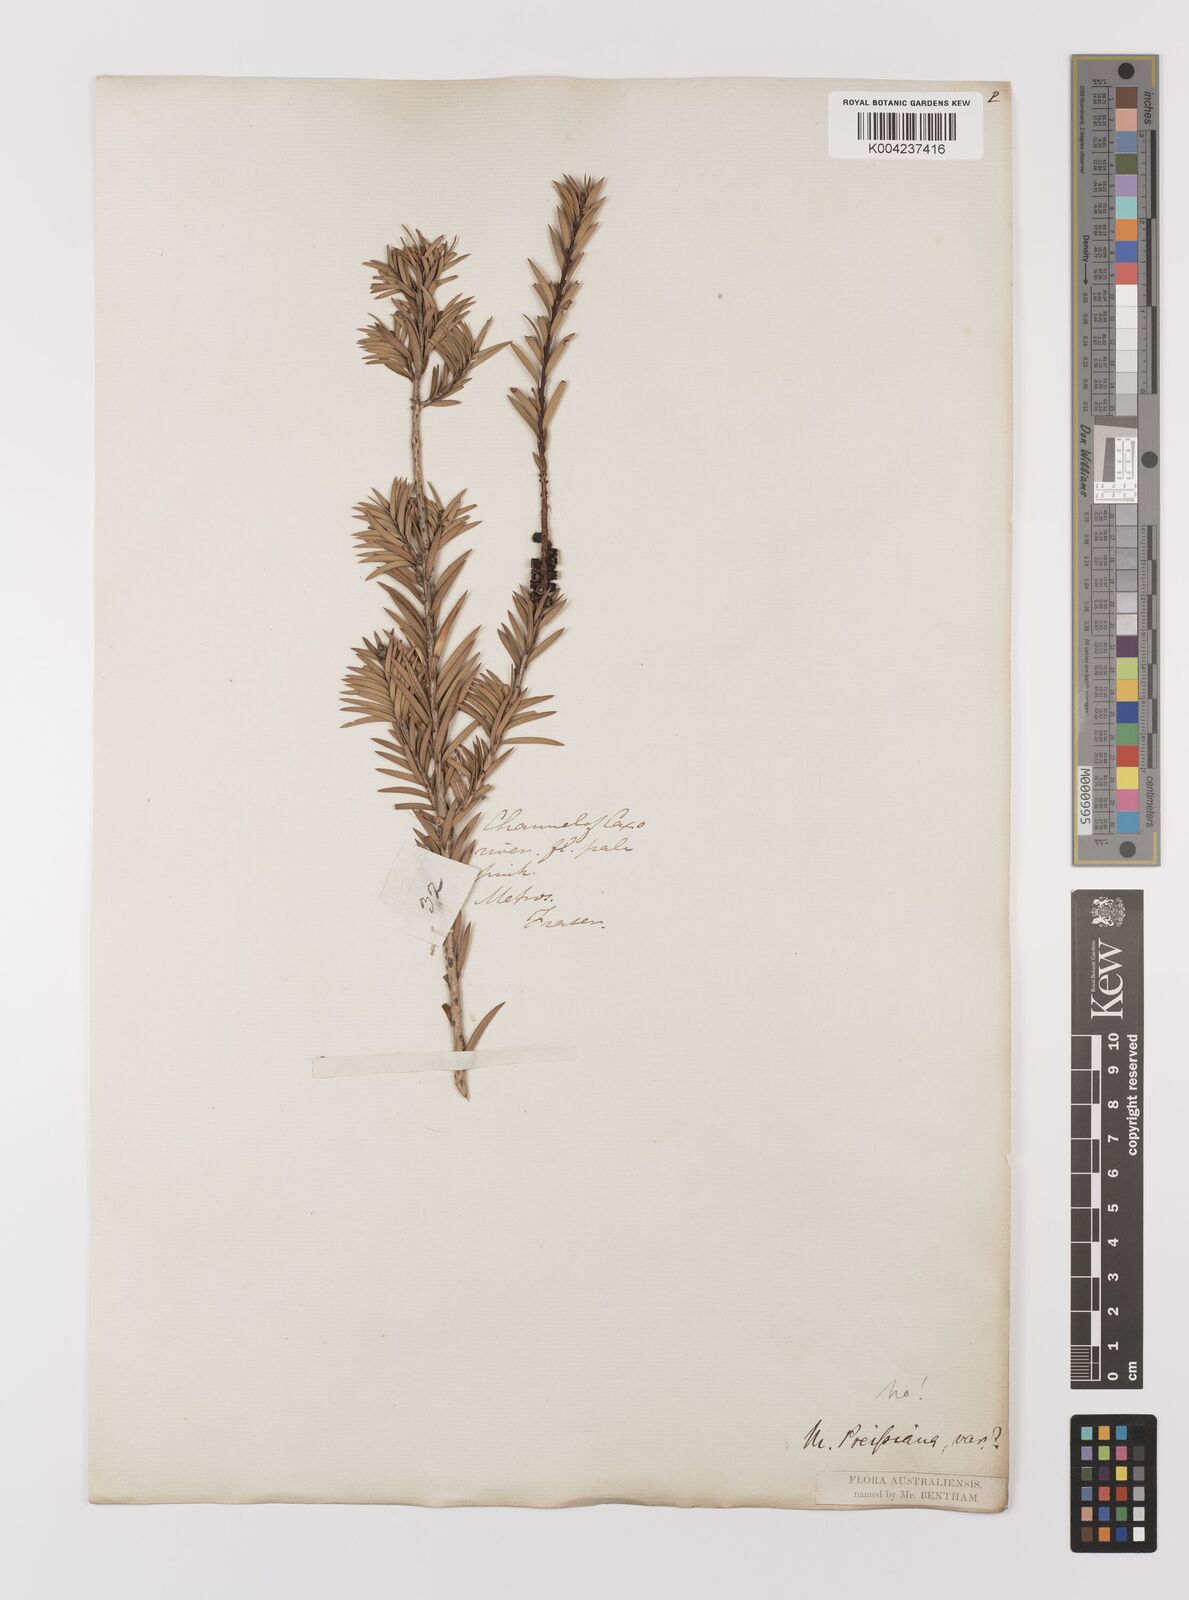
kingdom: Plantae
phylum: Tracheophyta
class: Magnoliopsida
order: Myrtales
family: Myrtaceae
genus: Melaleuca
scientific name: Melaleuca
